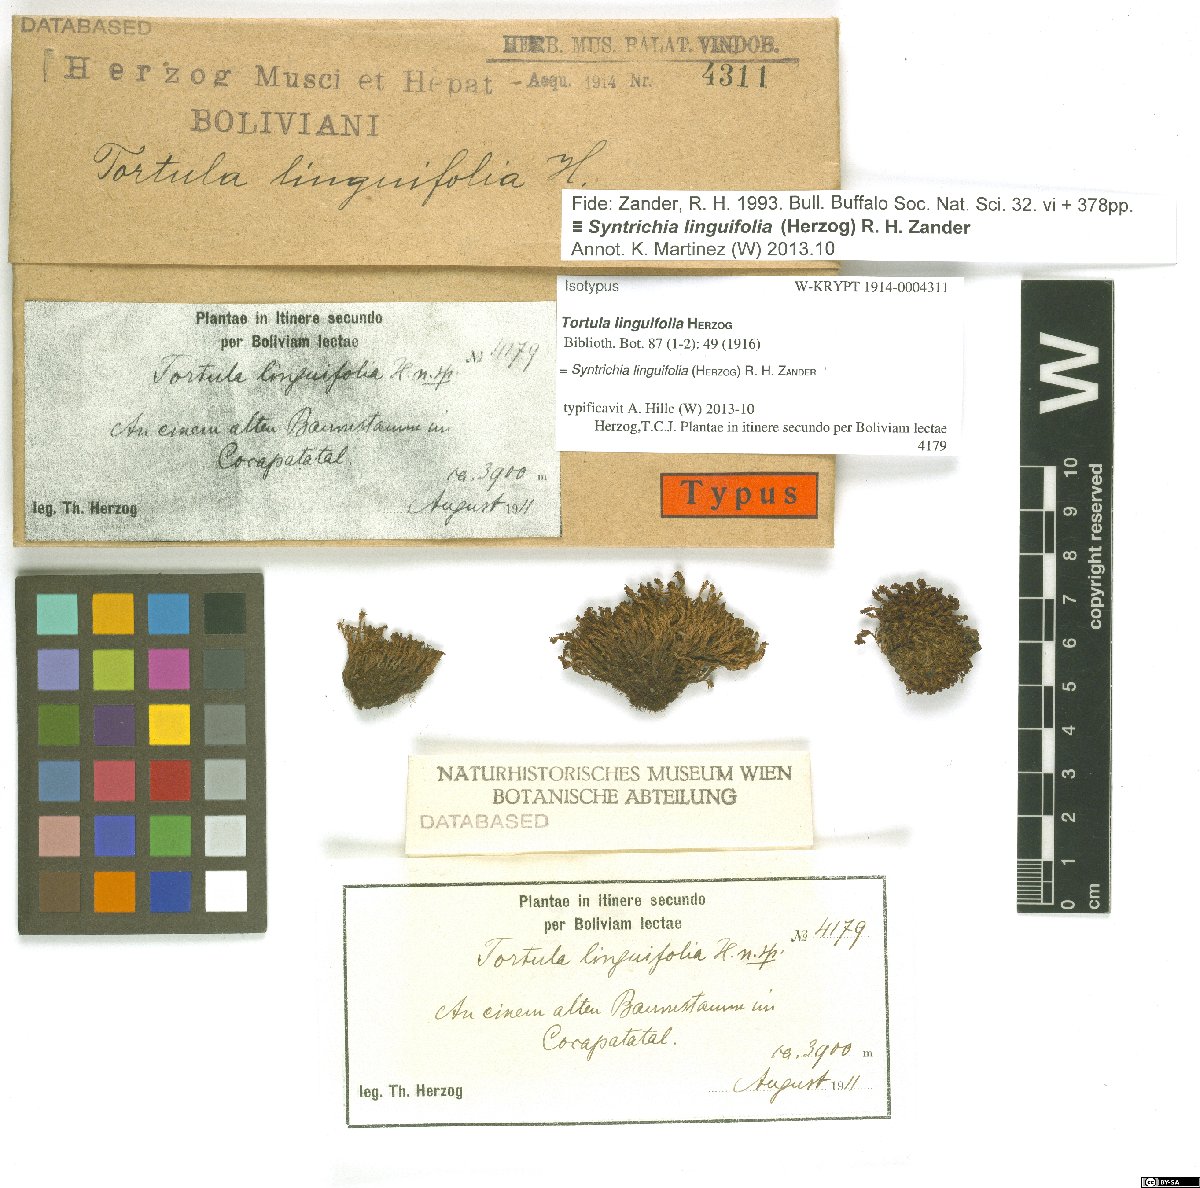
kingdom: Plantae
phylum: Bryophyta
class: Bryopsida
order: Pottiales
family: Pottiaceae
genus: Syntrichia
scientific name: Syntrichia fragilis
